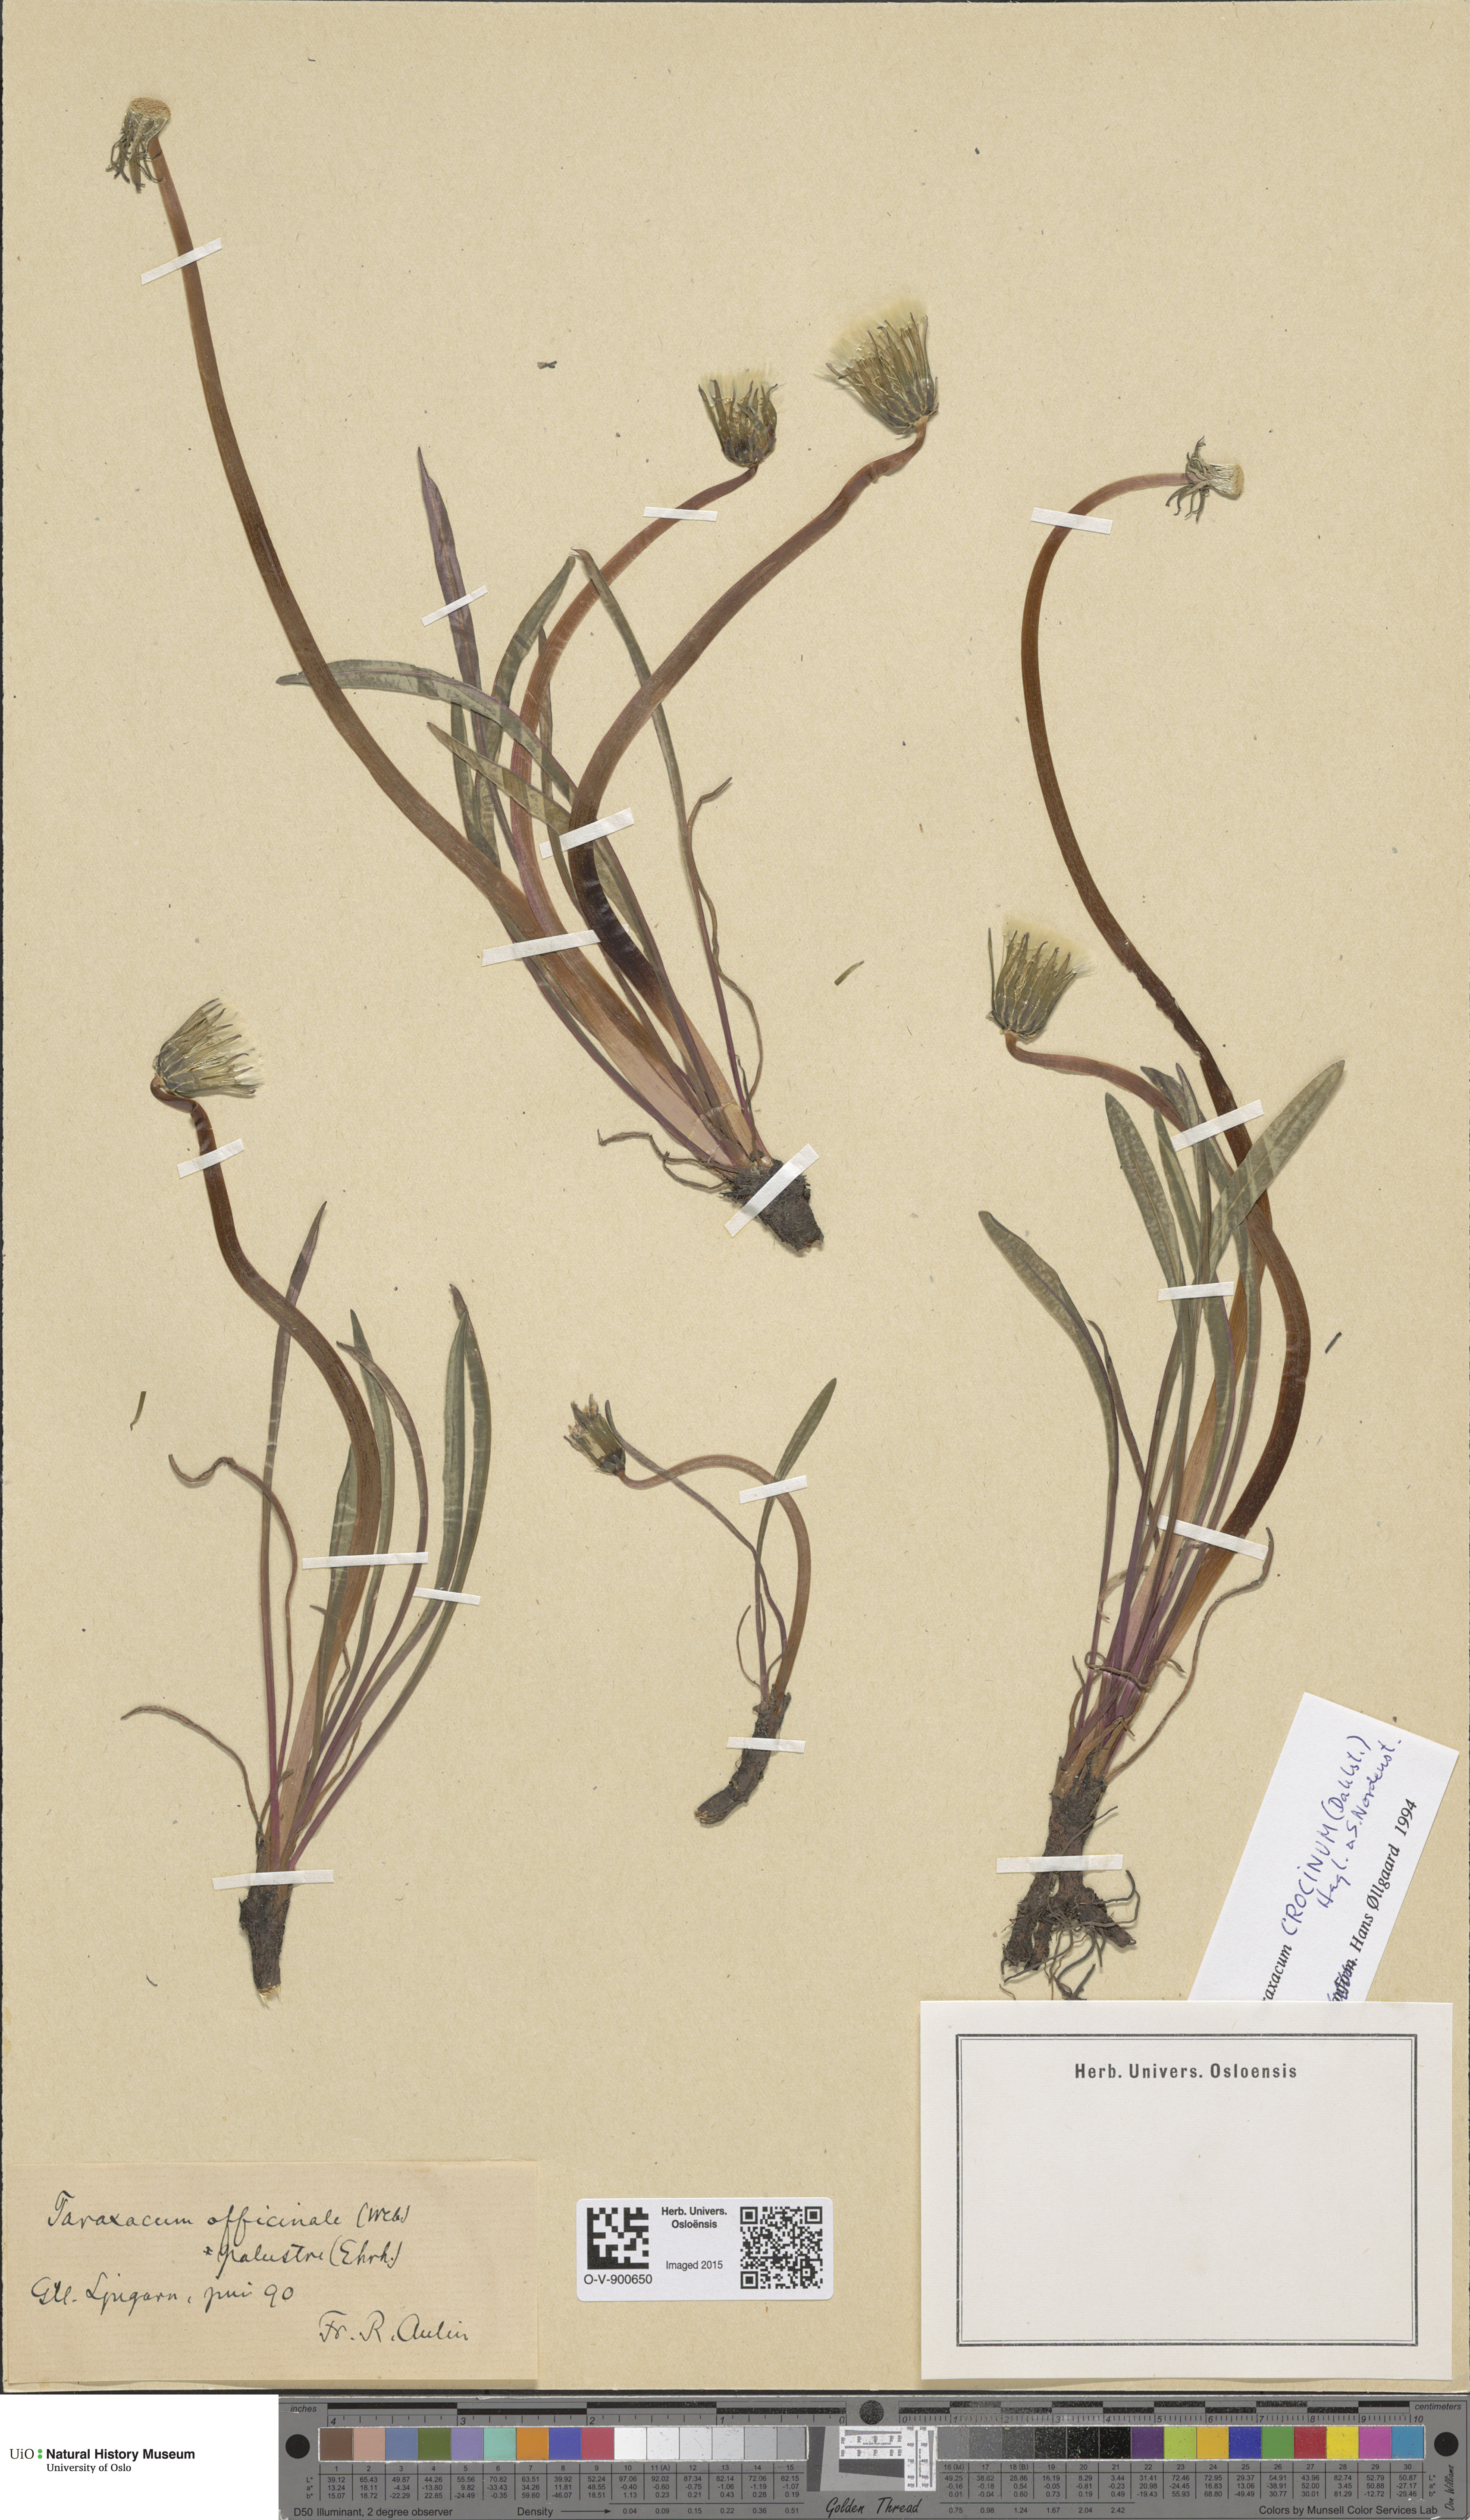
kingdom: Plantae
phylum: Tracheophyta
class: Magnoliopsida
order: Asterales
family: Asteraceae
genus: Taraxacum
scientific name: Taraxacum crocinum
